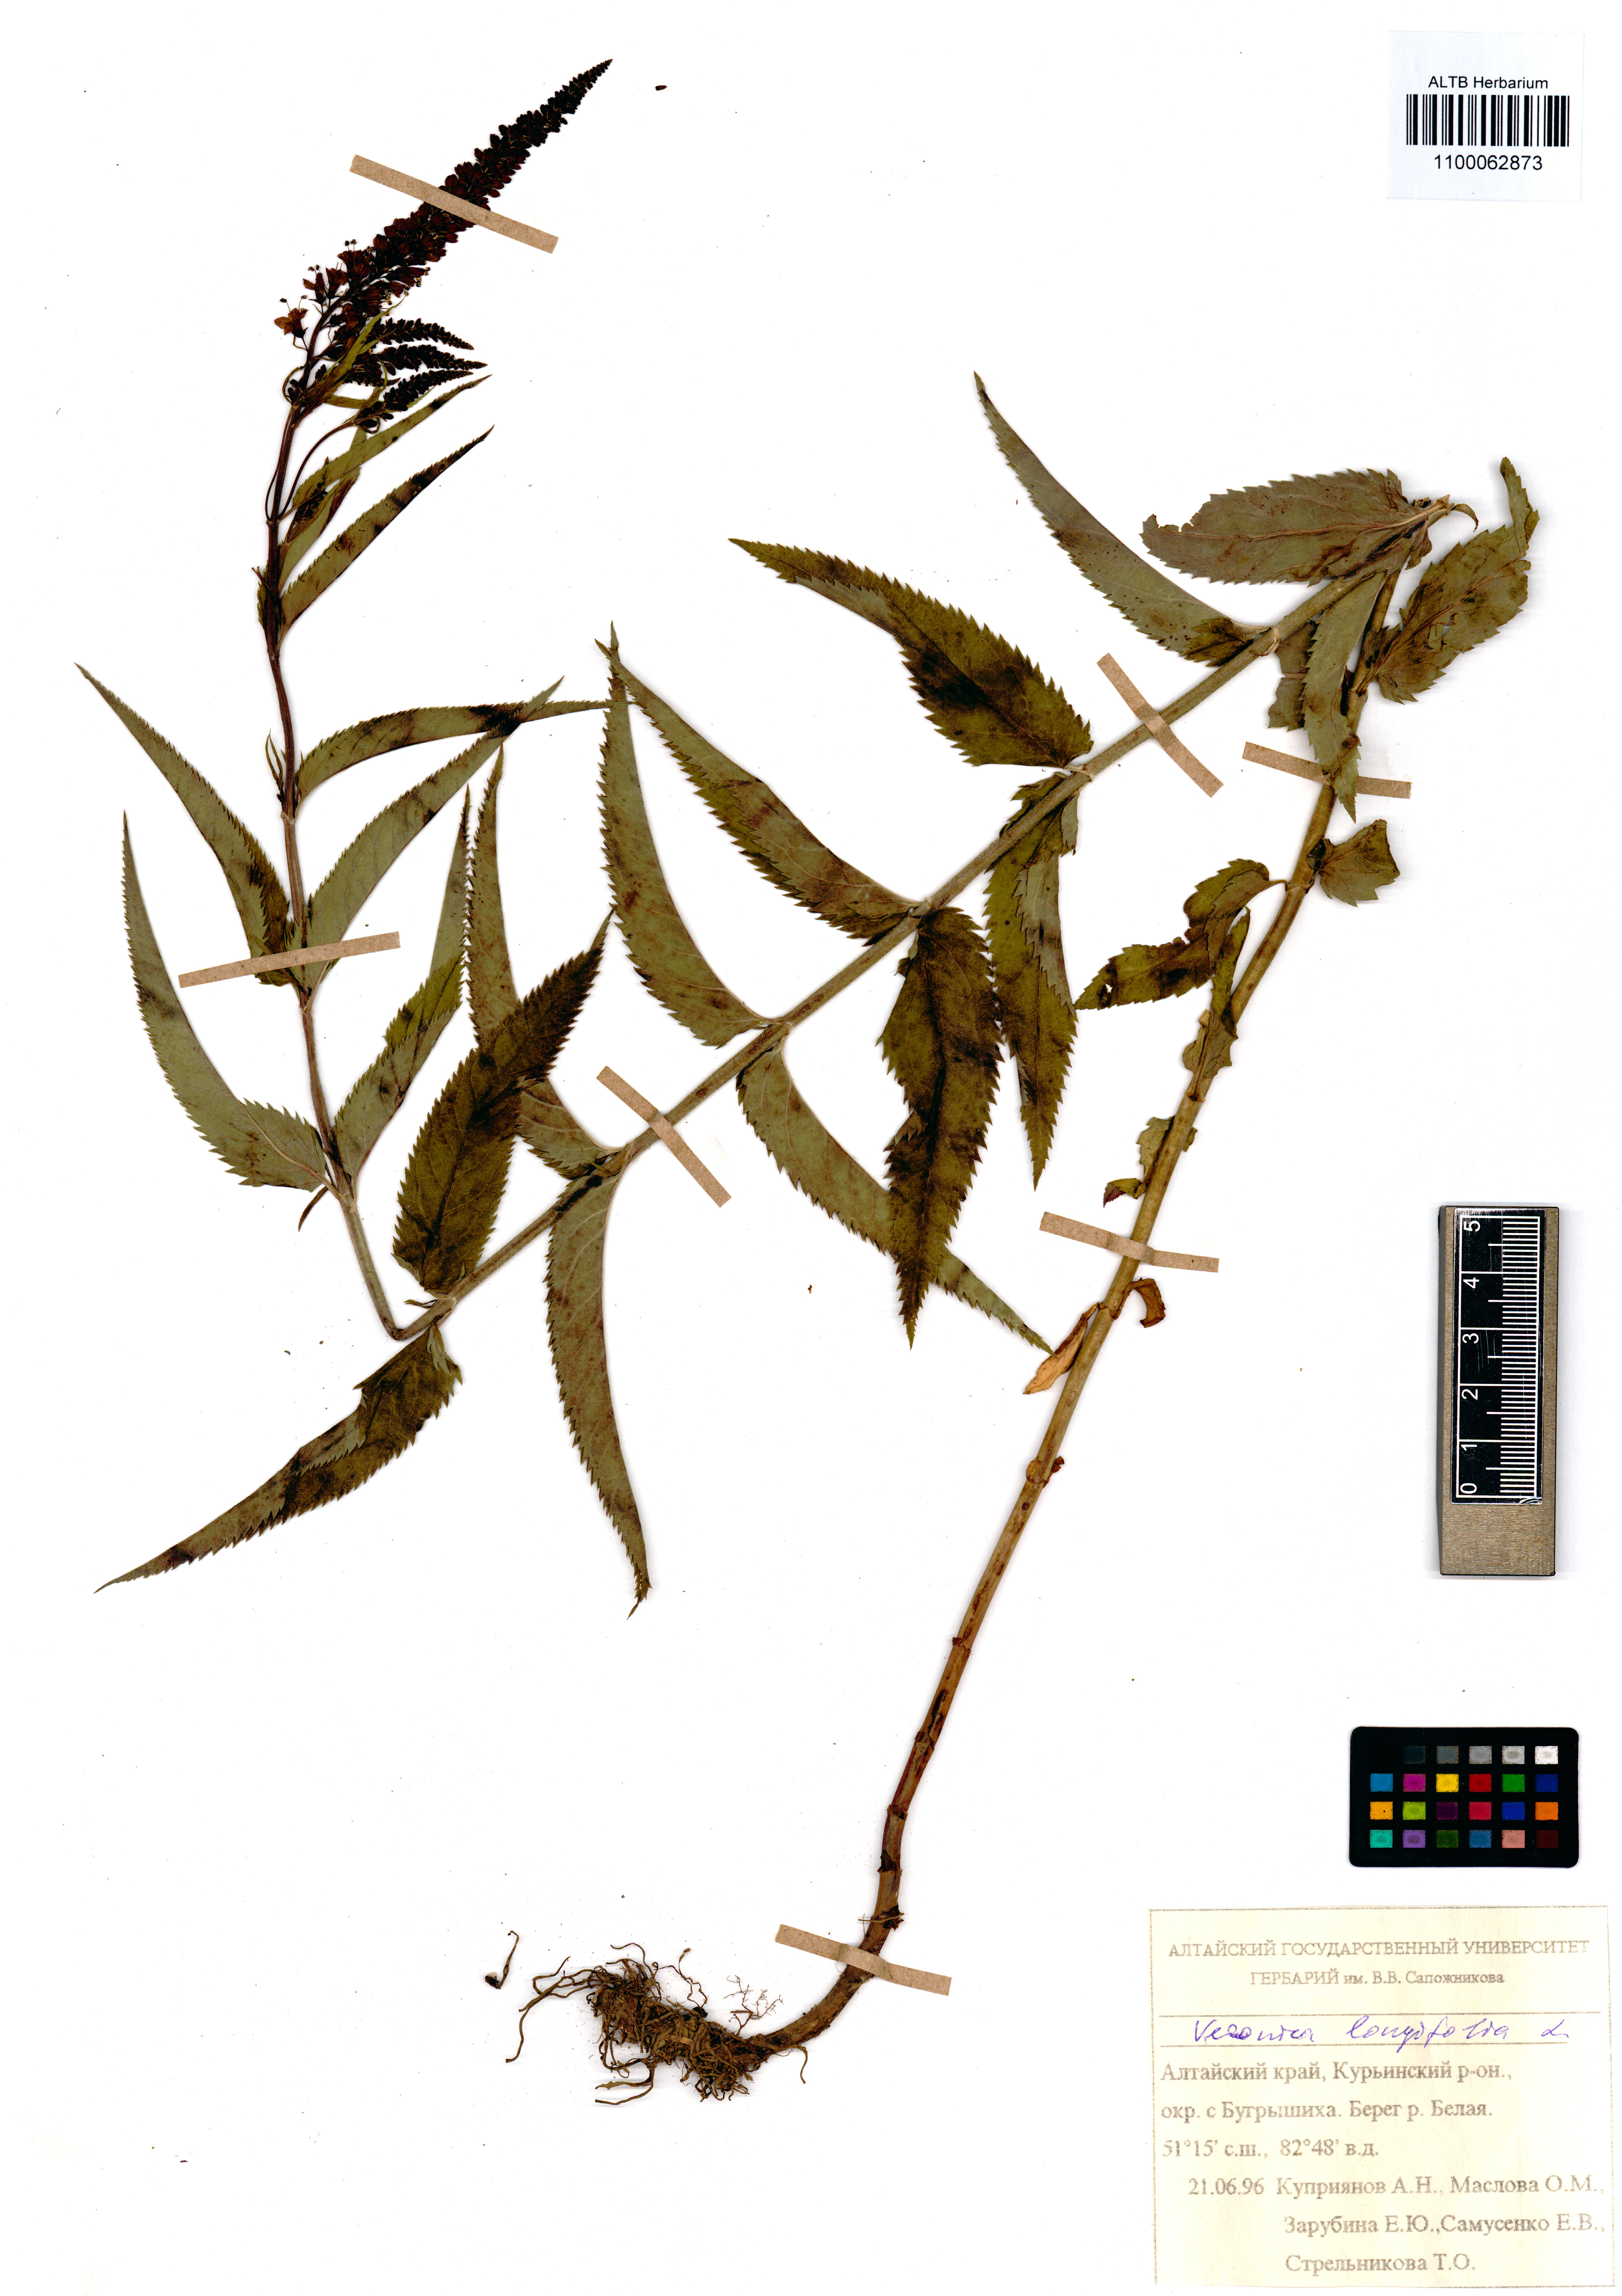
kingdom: Plantae
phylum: Tracheophyta
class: Magnoliopsida
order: Lamiales
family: Plantaginaceae
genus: Veronica
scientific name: Veronica longifolia
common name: Garden speedwell
